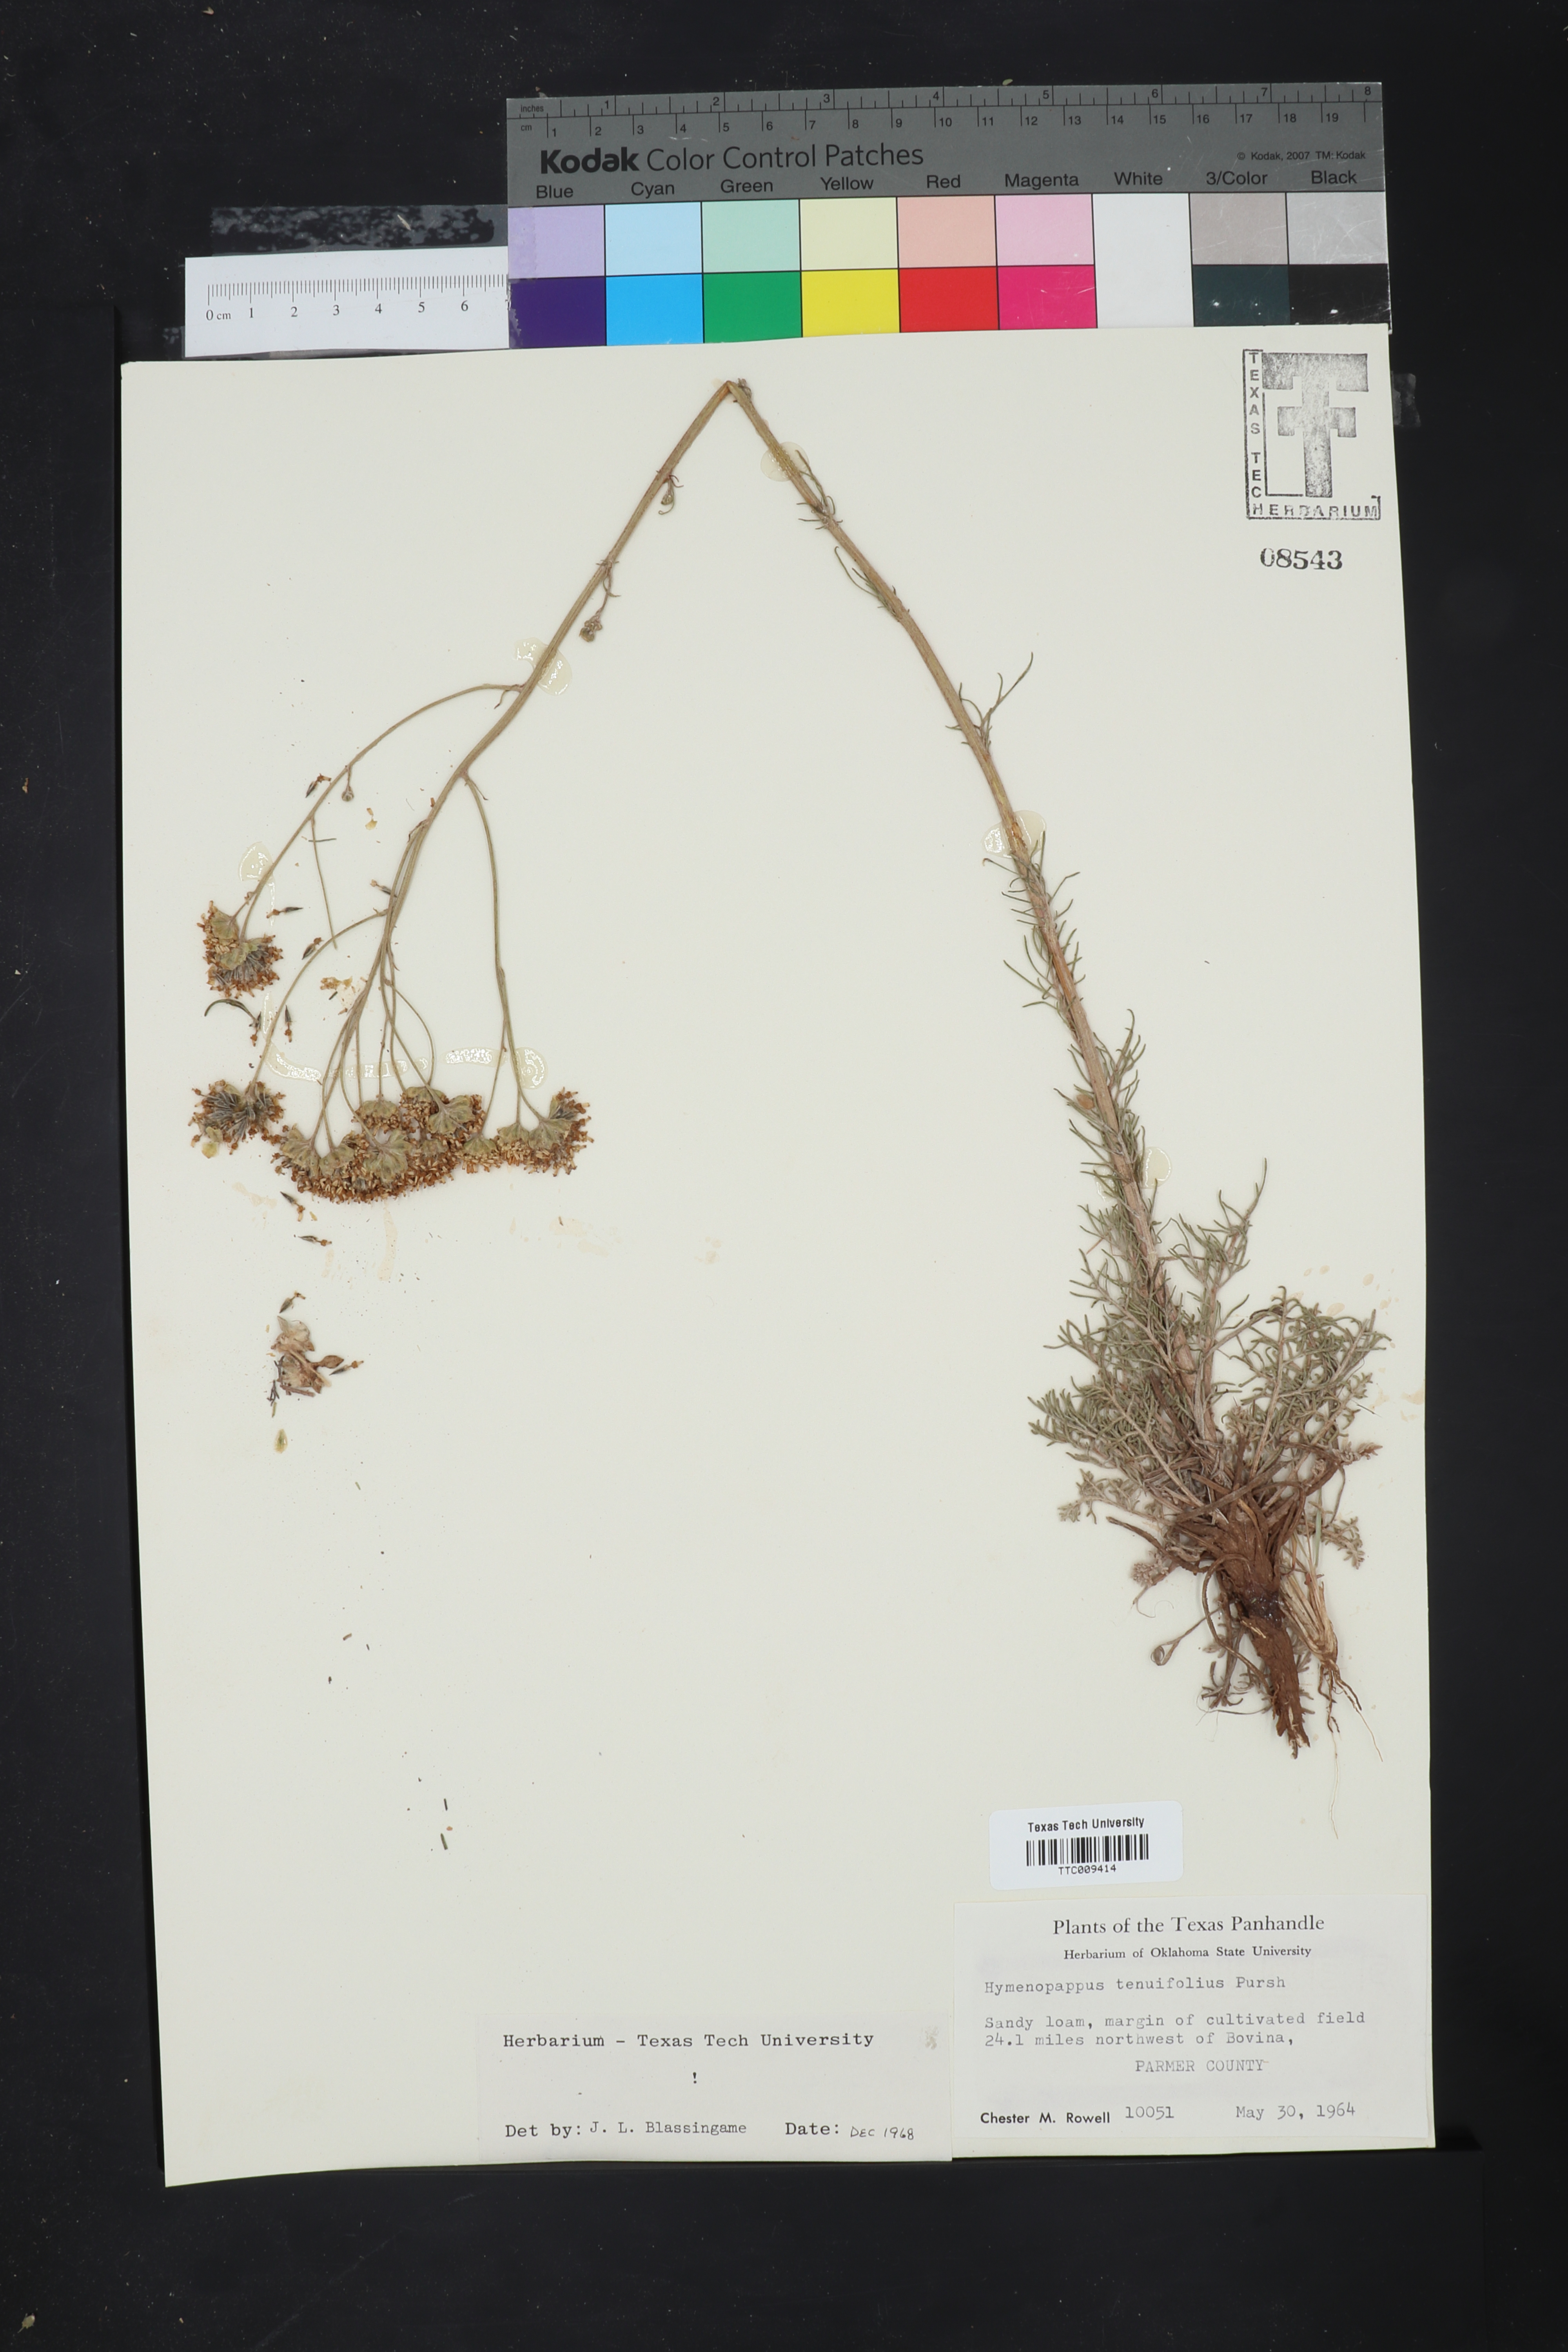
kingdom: Plantae
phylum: Tracheophyta
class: Magnoliopsida
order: Asterales
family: Asteraceae
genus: Hymenopappus
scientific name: Hymenopappus tenuifolius
